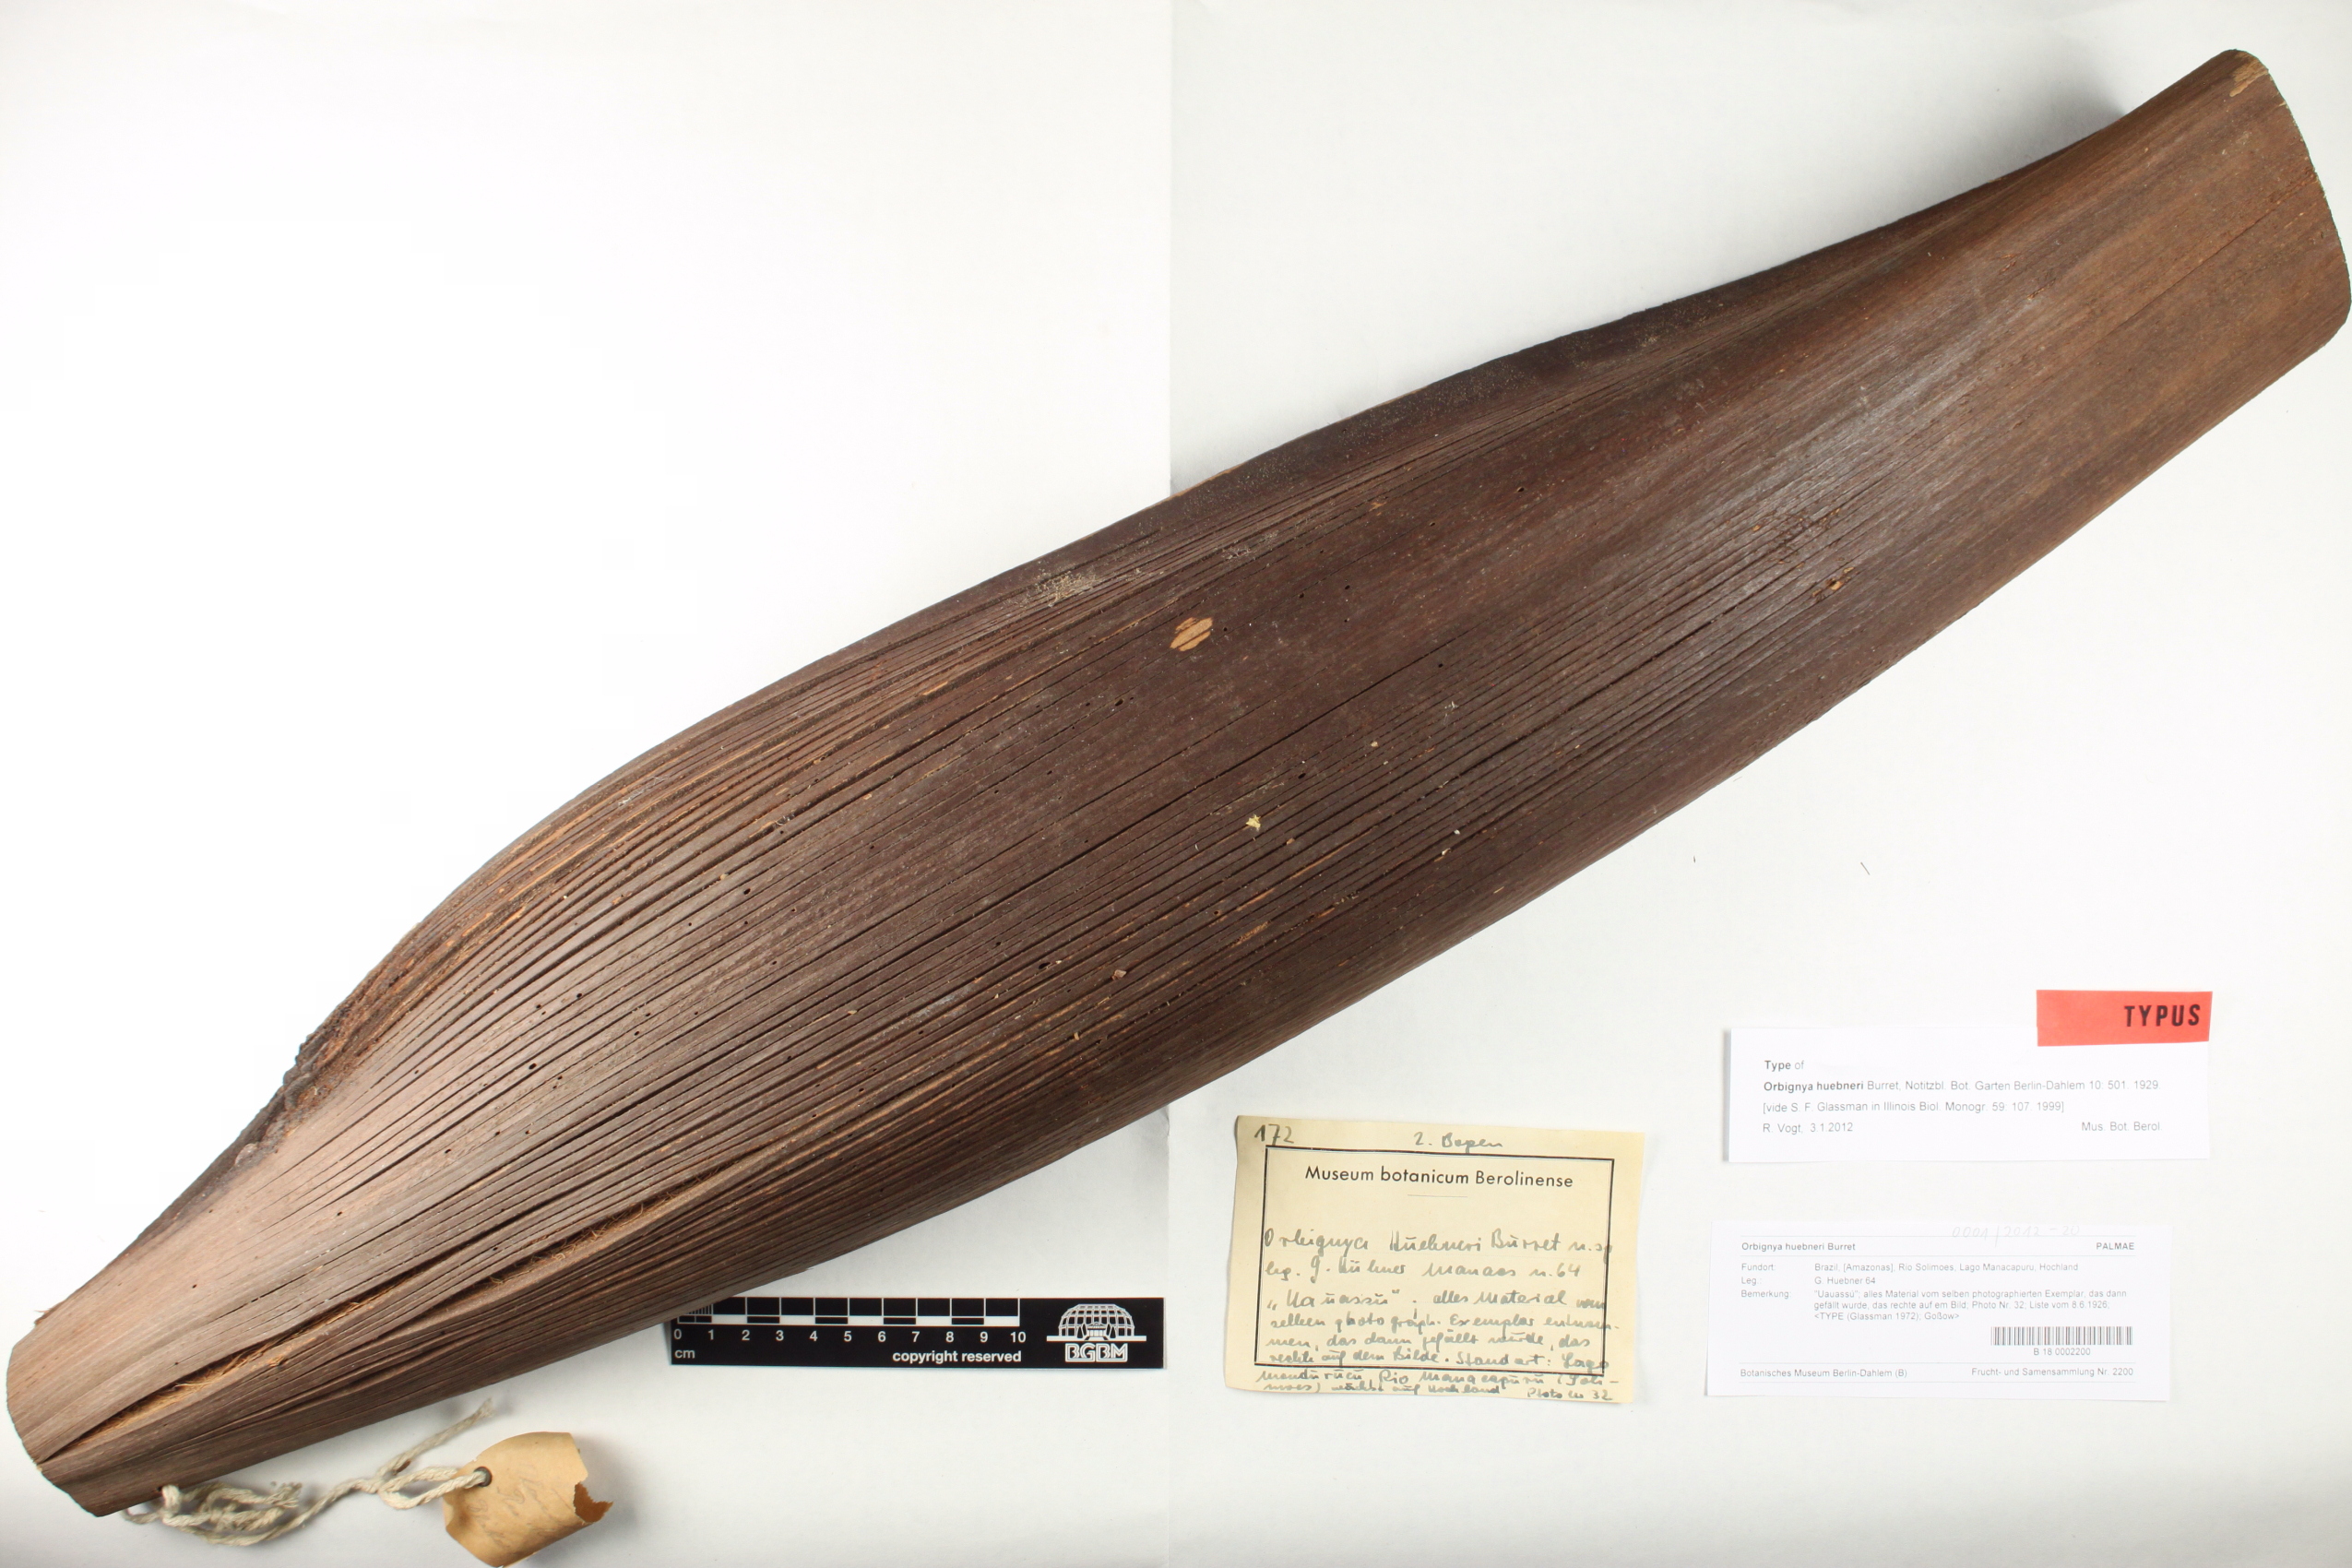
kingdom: Plantae
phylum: Tracheophyta
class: Liliopsida
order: Arecales
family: Arecaceae
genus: Attalea
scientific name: Attalea speciosa
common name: Babassu palm
